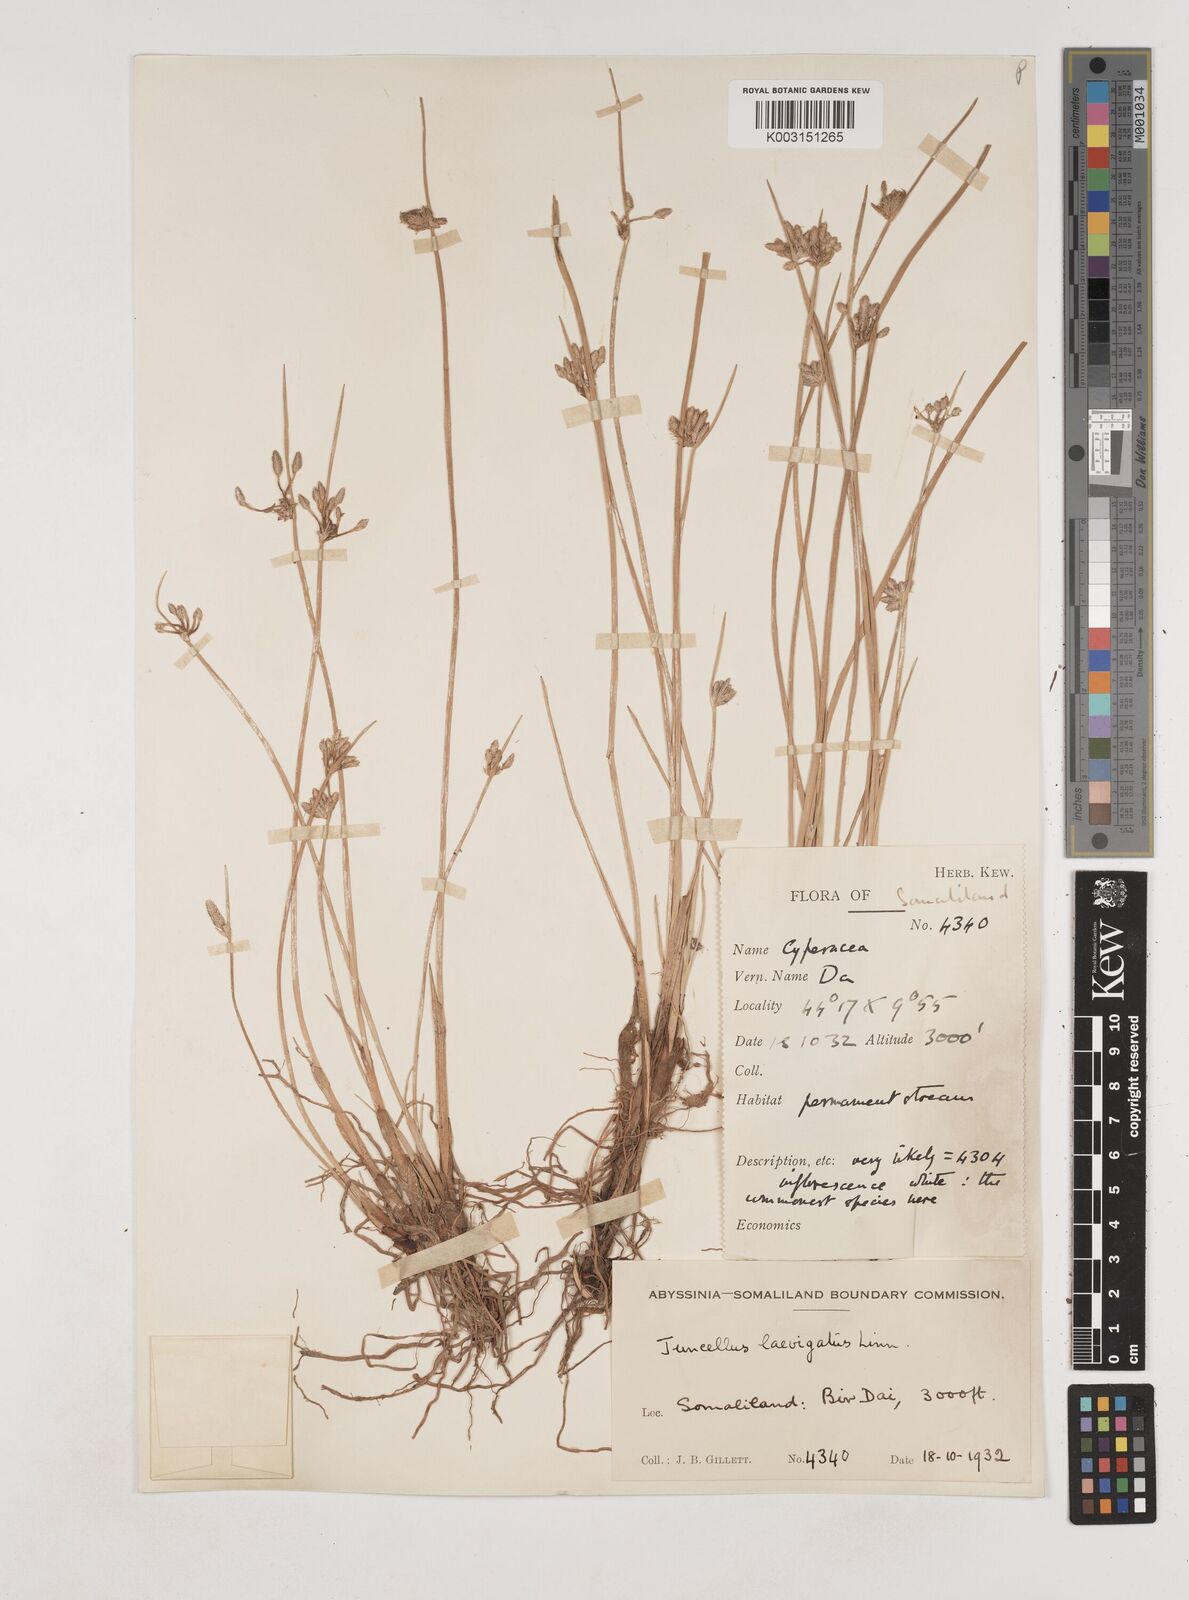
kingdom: Plantae
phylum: Tracheophyta
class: Liliopsida
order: Poales
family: Cyperaceae
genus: Cyperus
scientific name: Cyperus laevigatus
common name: Smooth flat sedge
